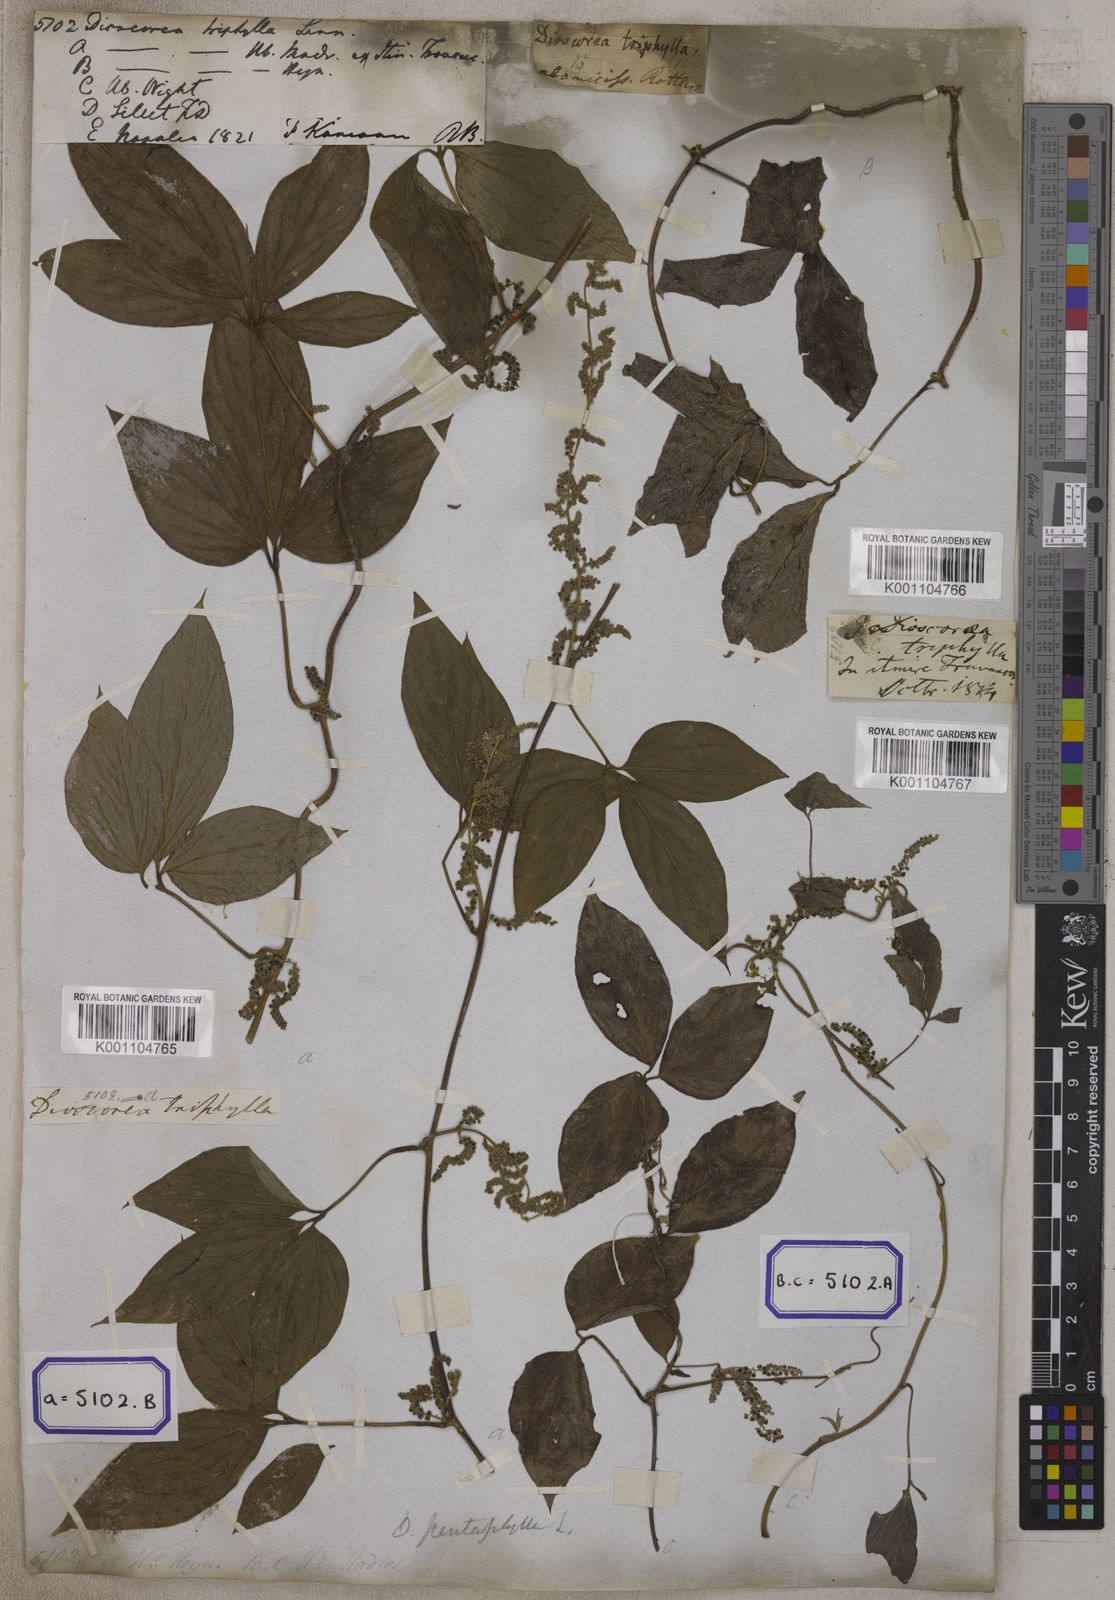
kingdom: Plantae
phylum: Tracheophyta
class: Liliopsida
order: Dioscoreales
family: Dioscoreaceae
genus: Dioscorea
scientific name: Dioscorea pentaphylla
